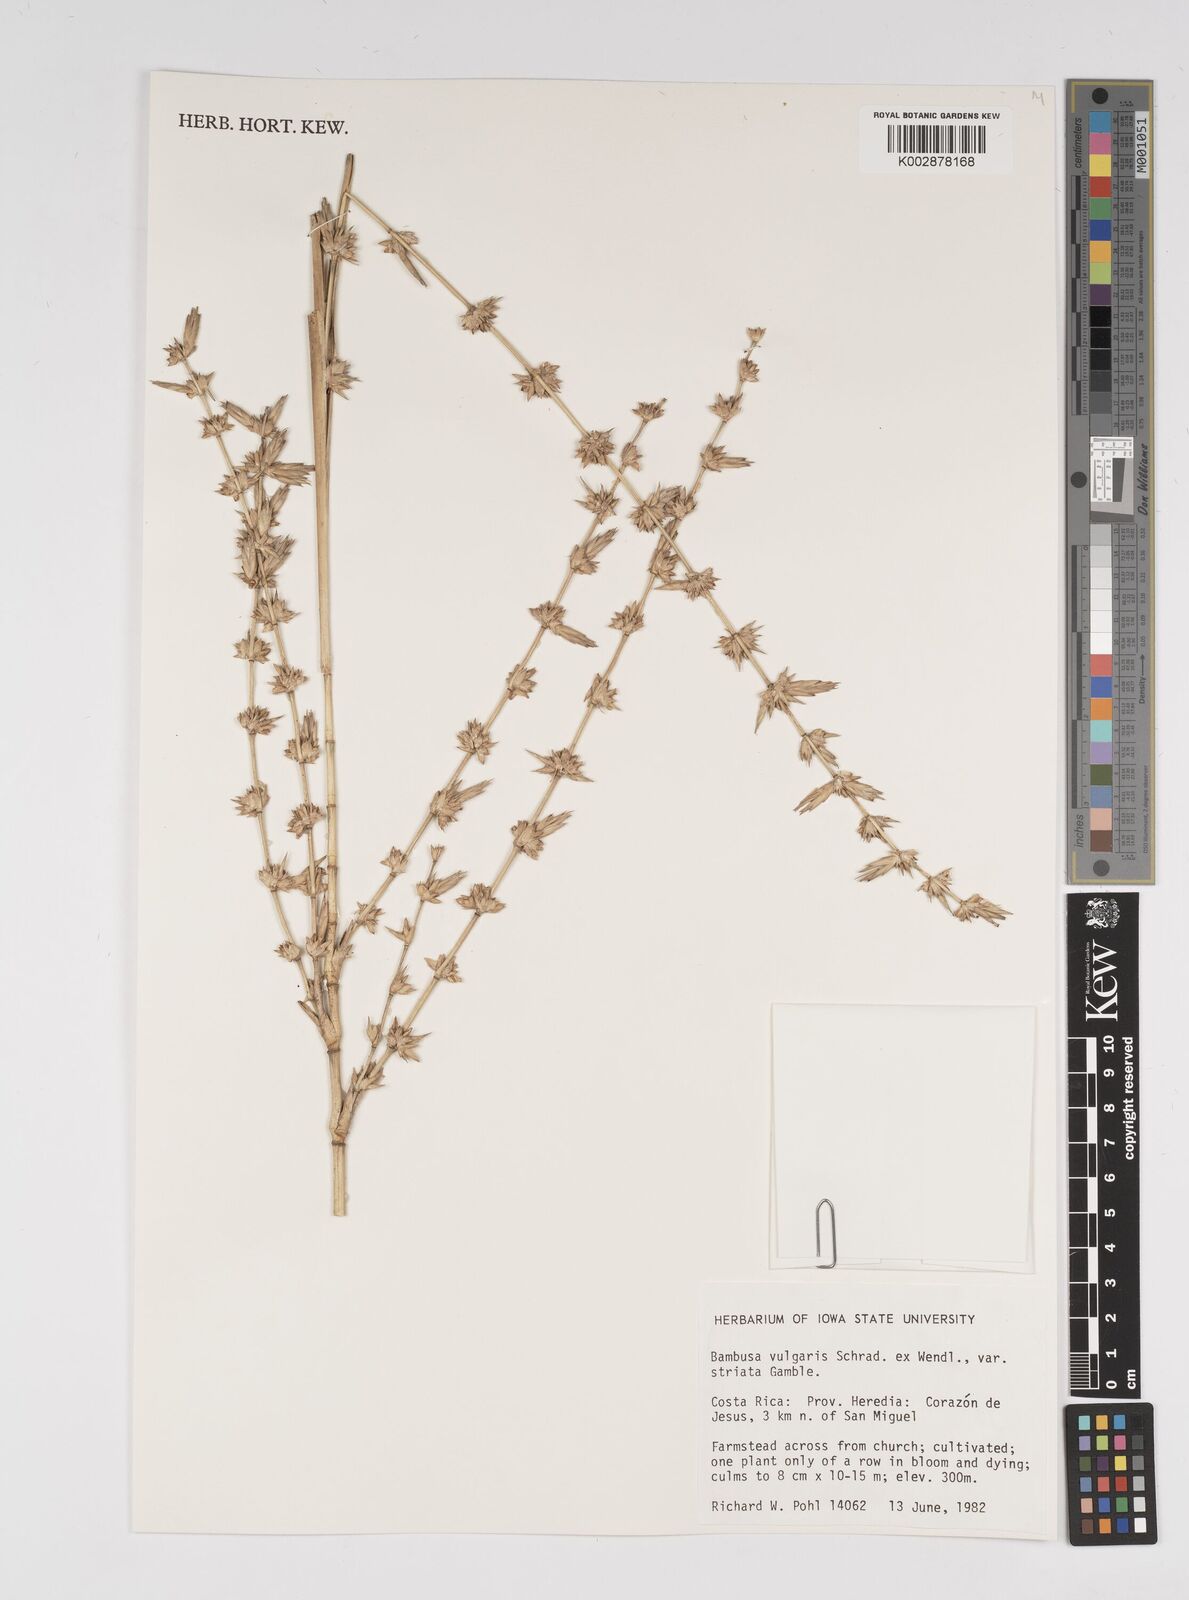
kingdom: Plantae
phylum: Tracheophyta
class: Liliopsida
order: Poales
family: Poaceae
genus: Bambusa
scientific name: Bambusa
